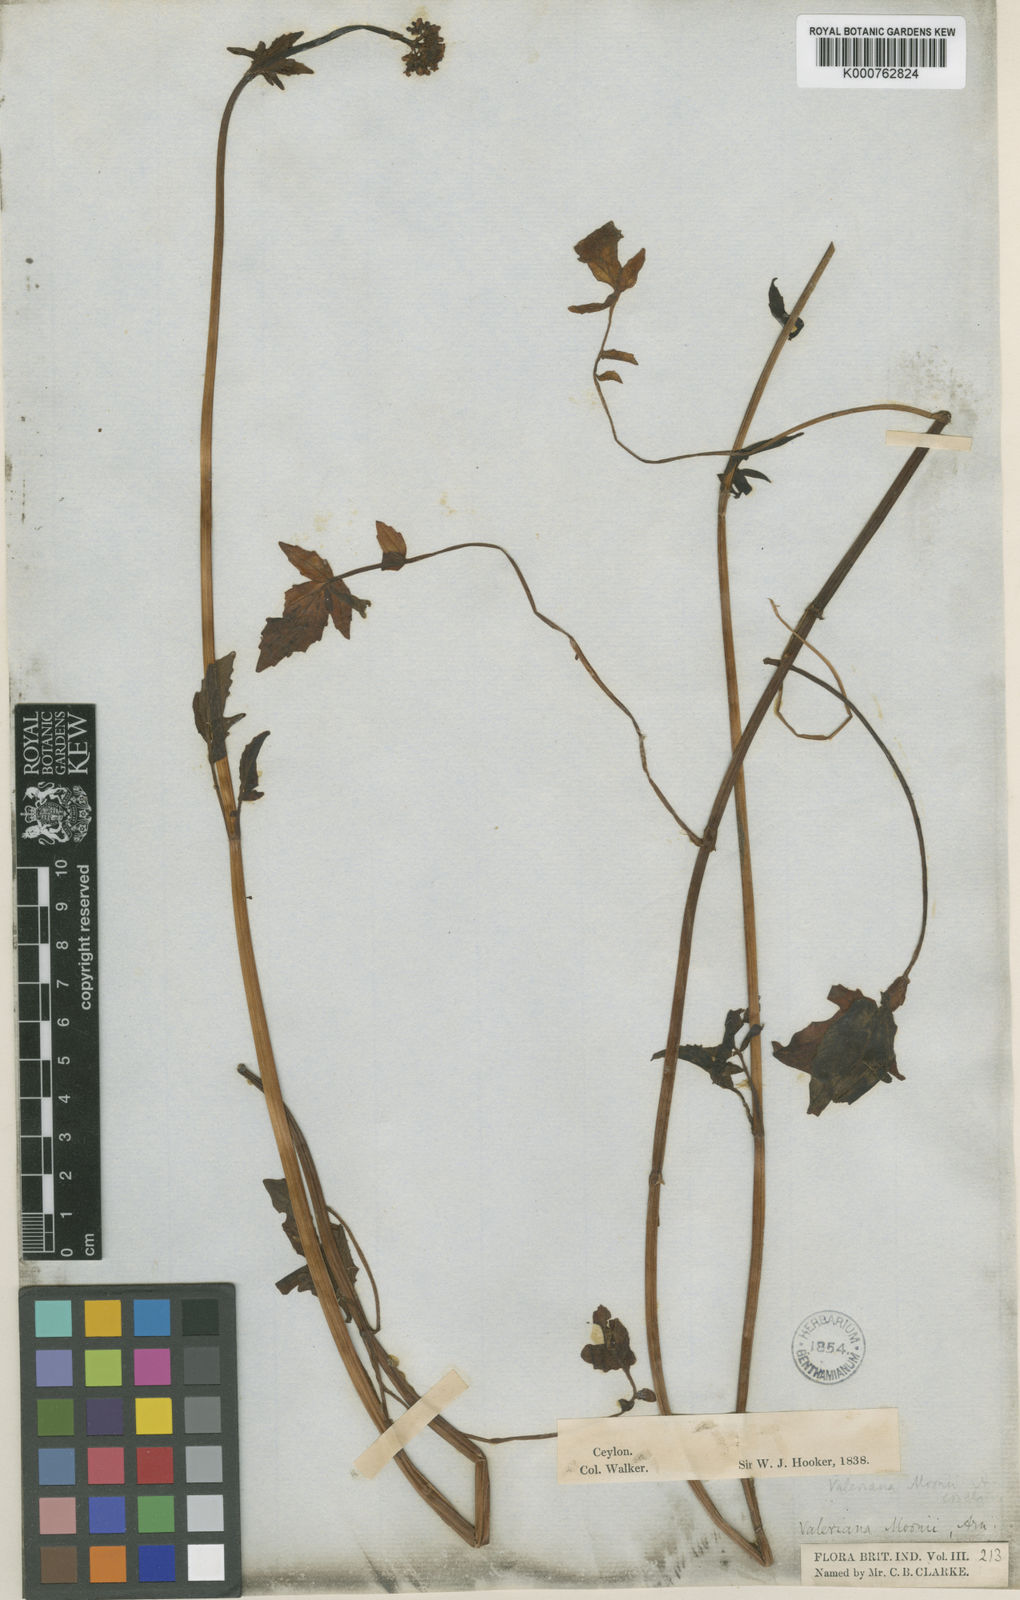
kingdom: Plantae
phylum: Tracheophyta
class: Magnoliopsida
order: Dipsacales
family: Caprifoliaceae
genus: Valeriana
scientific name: Valeriana moonii
